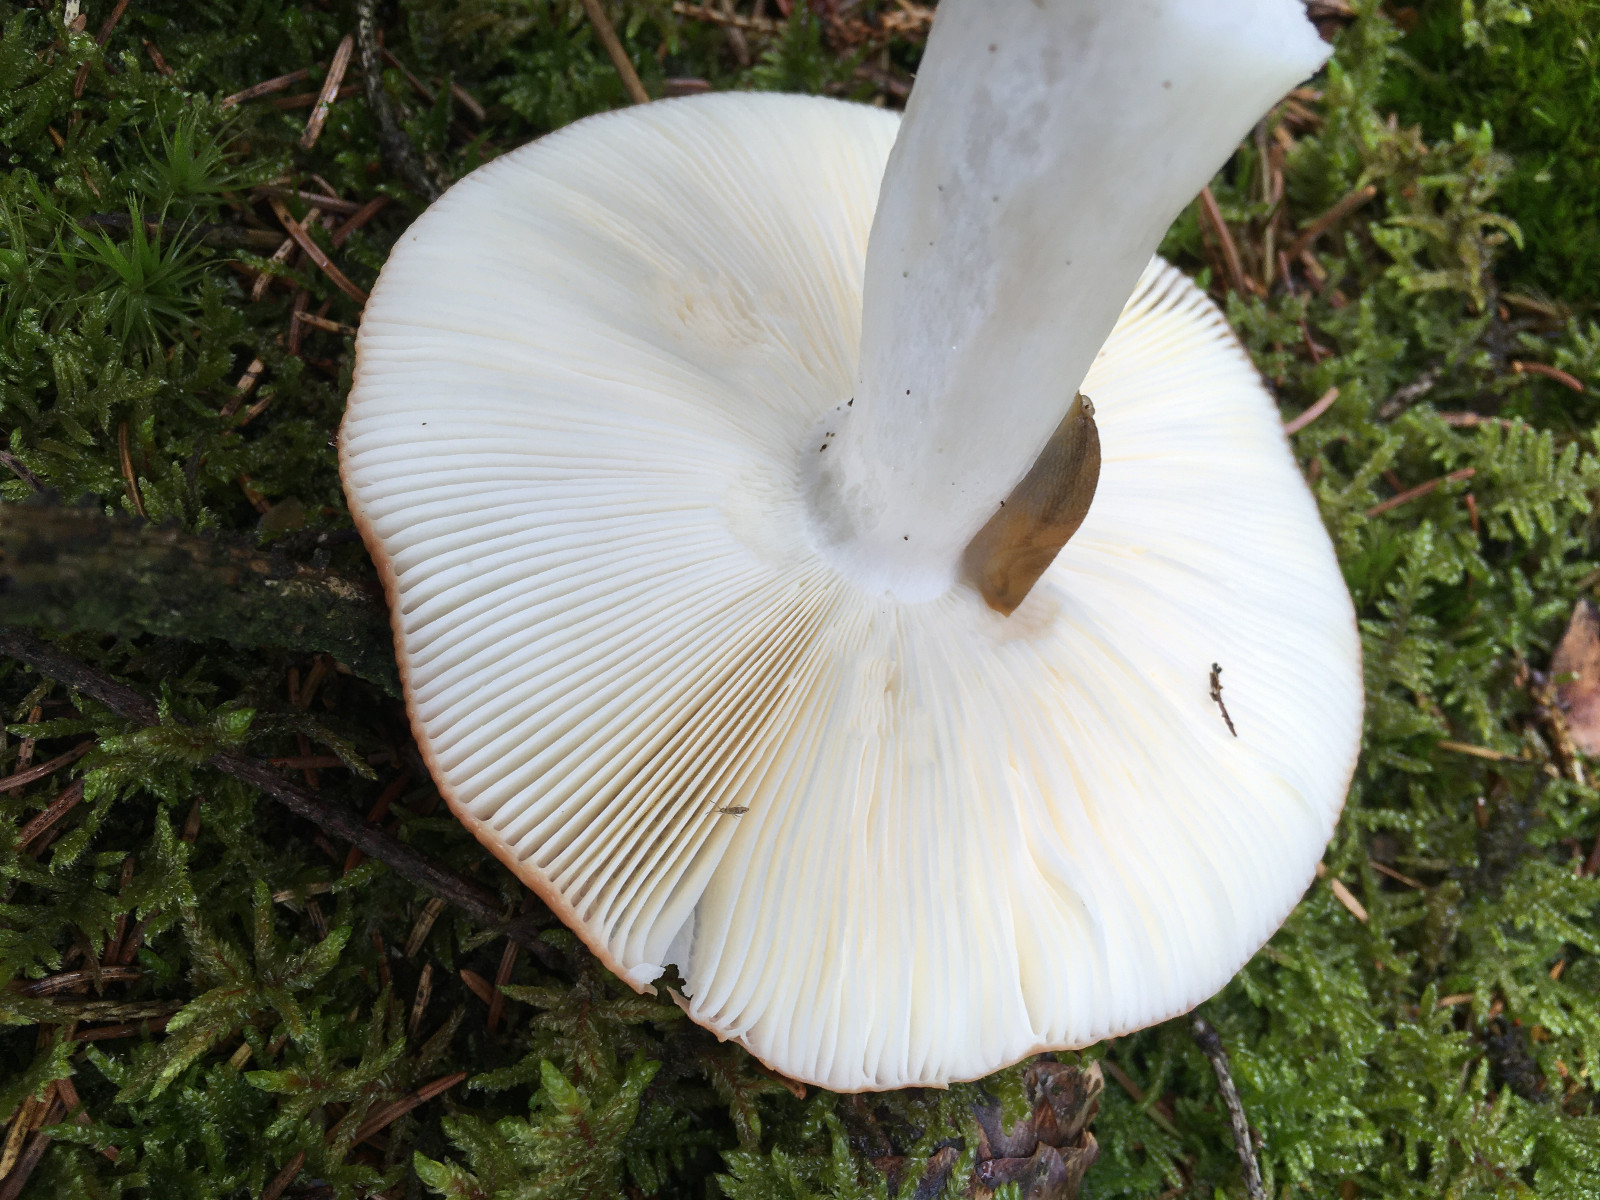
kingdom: Fungi
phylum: Basidiomycota
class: Agaricomycetes
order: Russulales
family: Russulaceae
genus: Russula
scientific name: Russula
